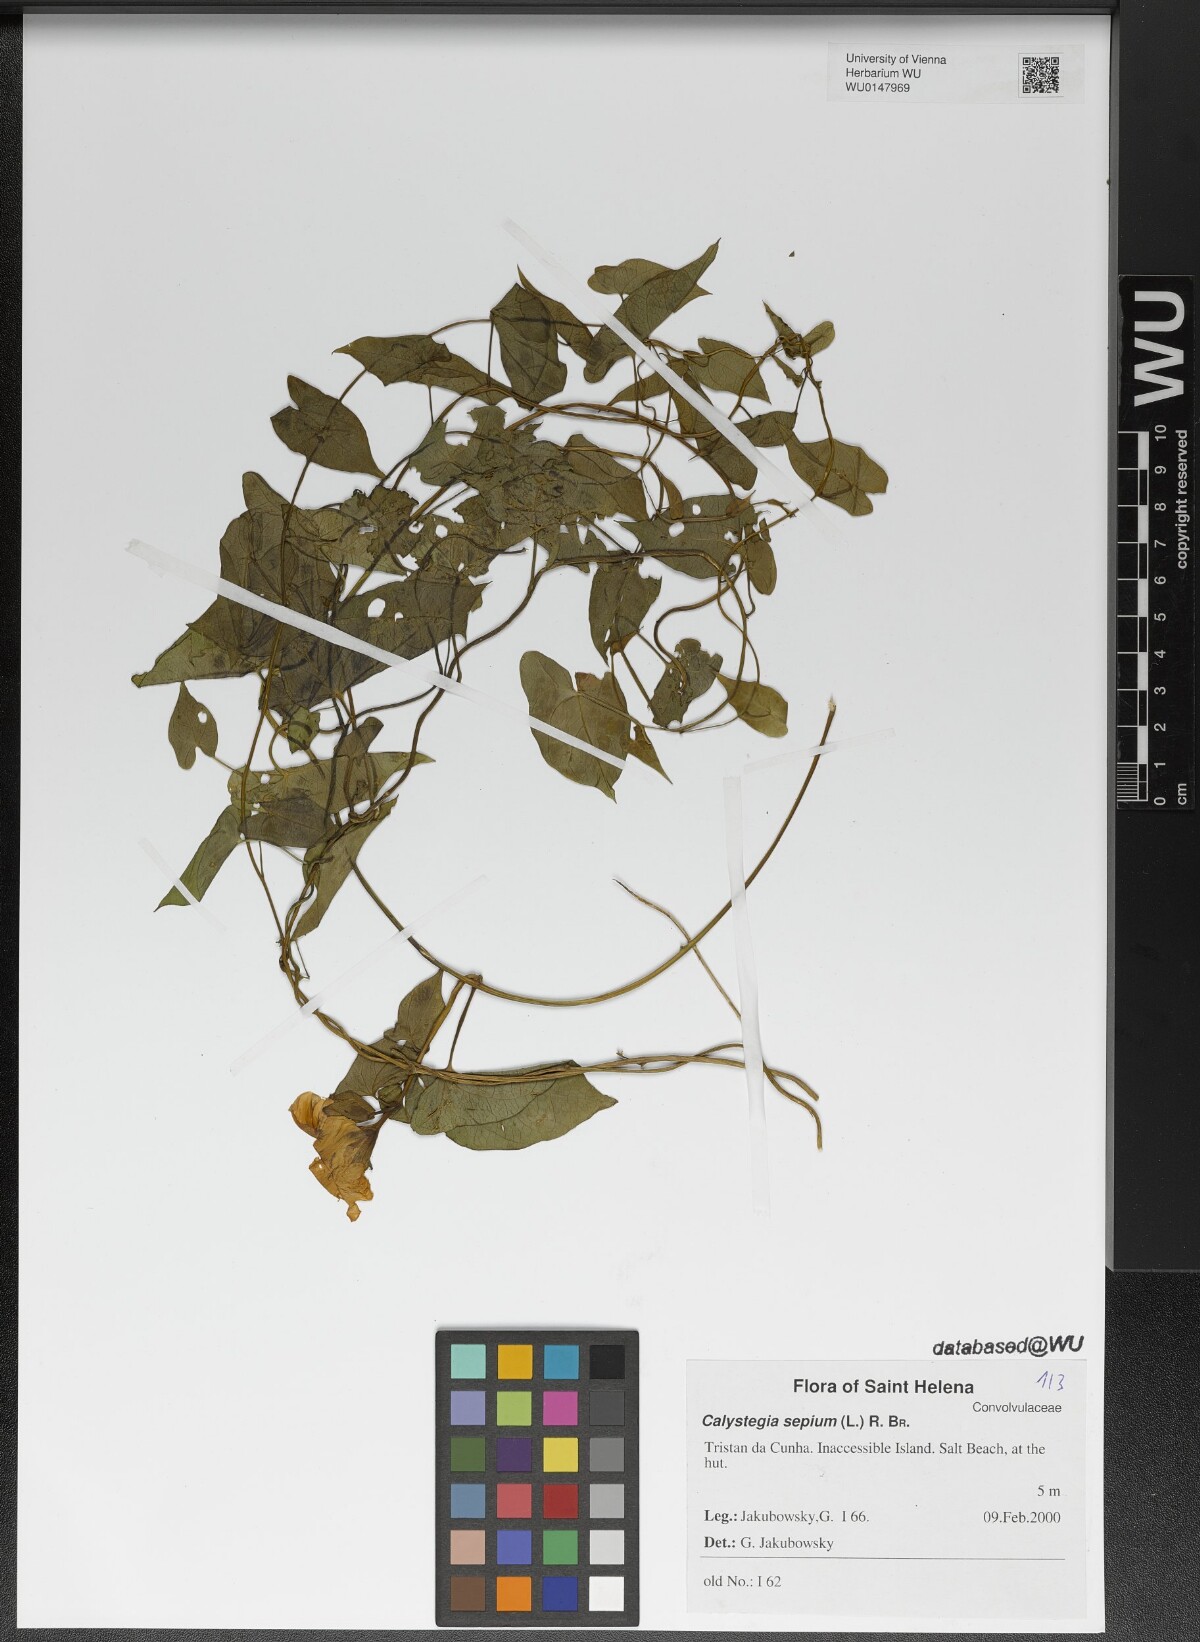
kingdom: Plantae
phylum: Tracheophyta
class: Magnoliopsida
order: Solanales
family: Convolvulaceae
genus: Calystegia
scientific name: Calystegia sepium
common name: Hedge bindweed
